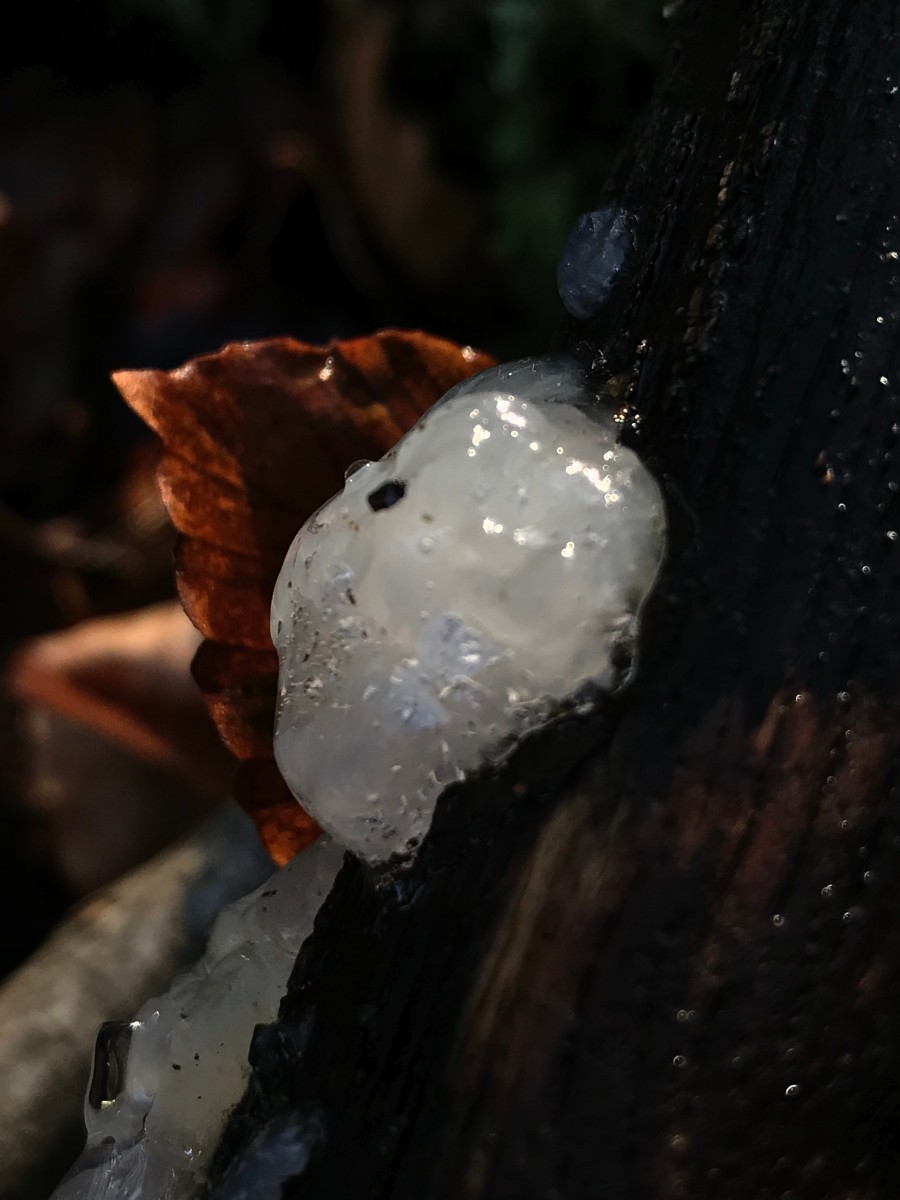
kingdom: Fungi
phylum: Basidiomycota
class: Agaricomycetes
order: Auriculariales
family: Hyaloriaceae
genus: Myxarium
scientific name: Myxarium nucleatum
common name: klar bævretop
